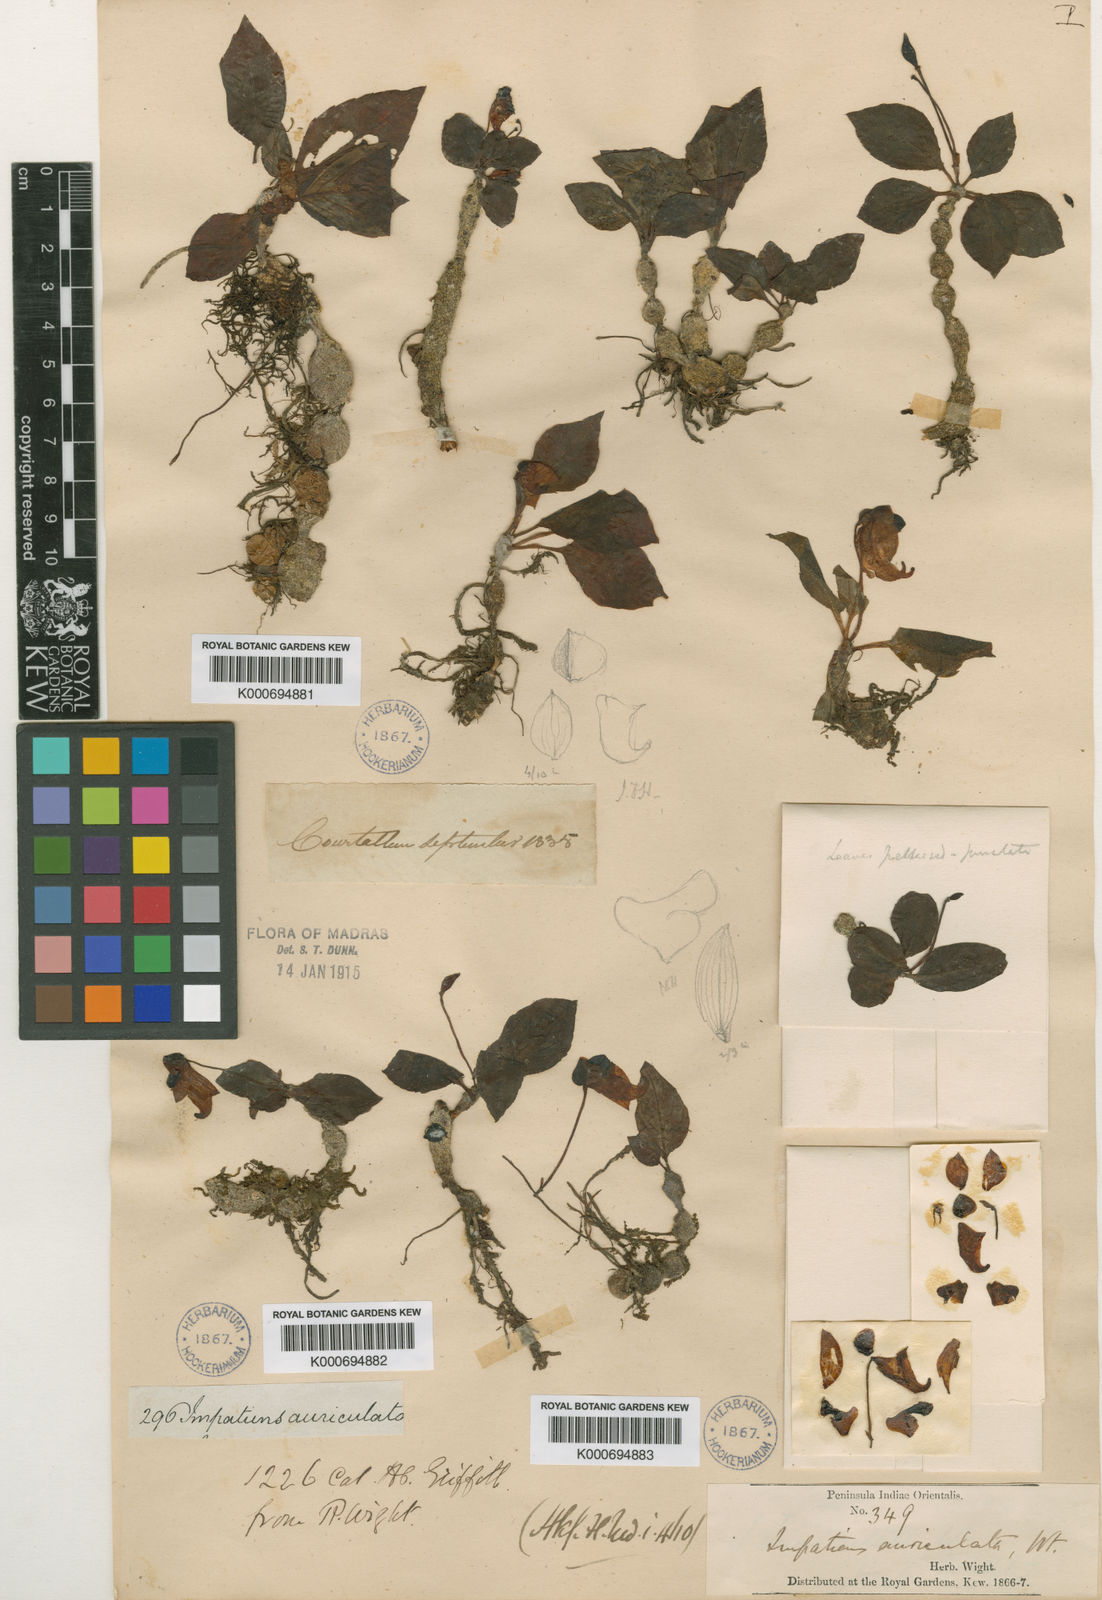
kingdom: Plantae
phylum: Tracheophyta
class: Magnoliopsida
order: Ericales
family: Balsaminaceae
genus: Impatiens
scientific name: Impatiens auriculata
